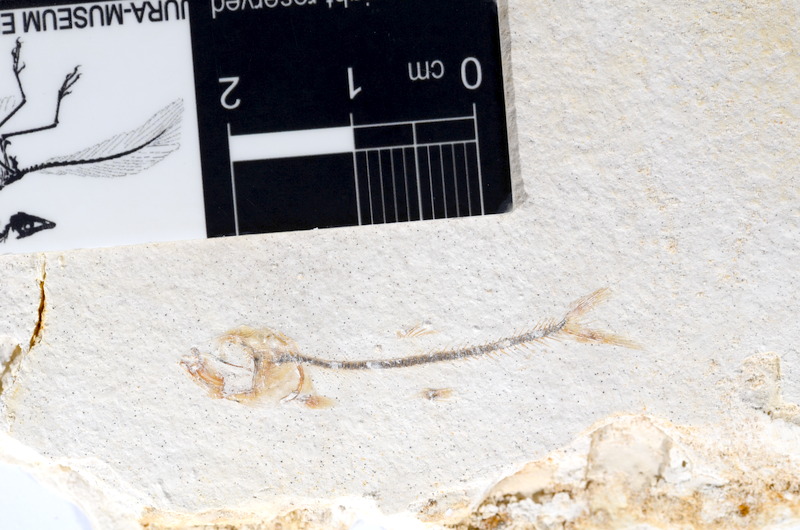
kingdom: Animalia
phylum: Chordata
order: Salmoniformes
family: Orthogonikleithridae
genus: Orthogonikleithrus
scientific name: Orthogonikleithrus hoelli
